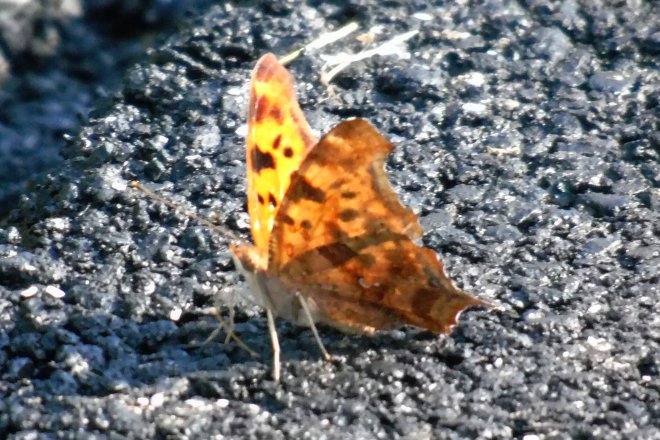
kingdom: Animalia
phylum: Arthropoda
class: Insecta
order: Lepidoptera
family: Nymphalidae
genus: Polygonia
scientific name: Polygonia interrogationis
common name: Question Mark
